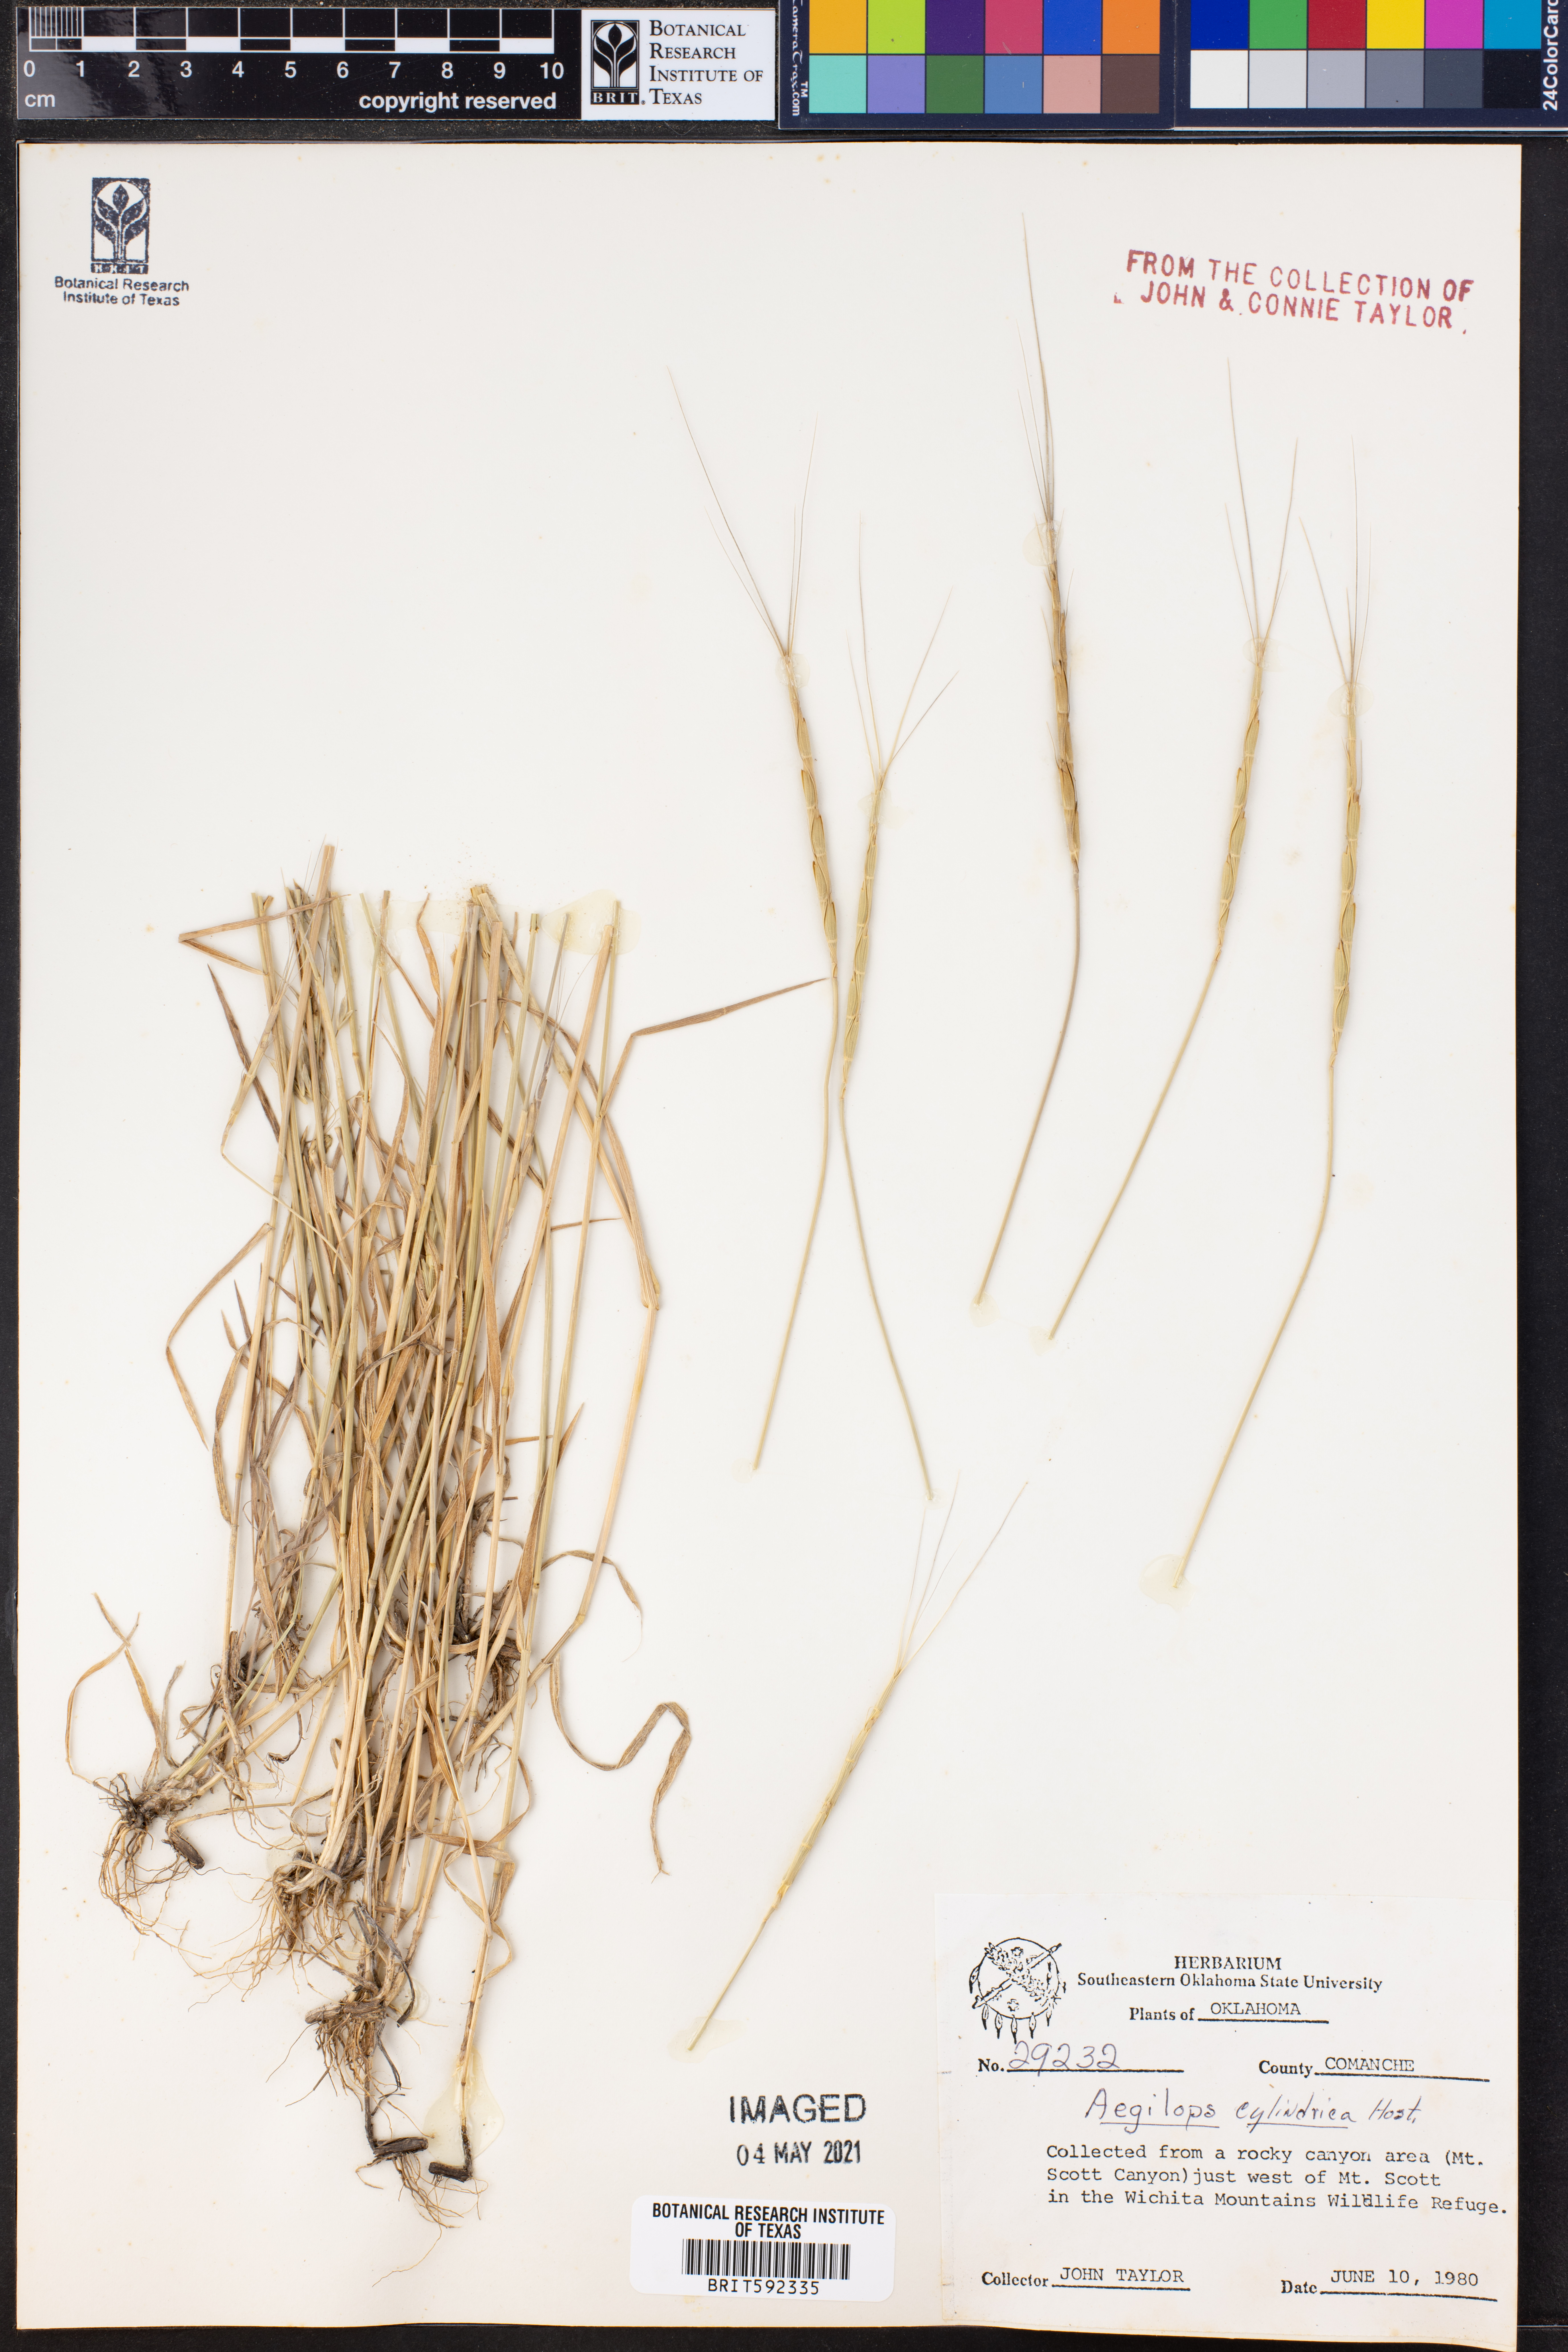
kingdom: Plantae
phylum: Tracheophyta
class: Liliopsida
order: Poales
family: Poaceae
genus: Aegilops
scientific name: Aegilops cylindrica
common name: Jointed goatgrass
